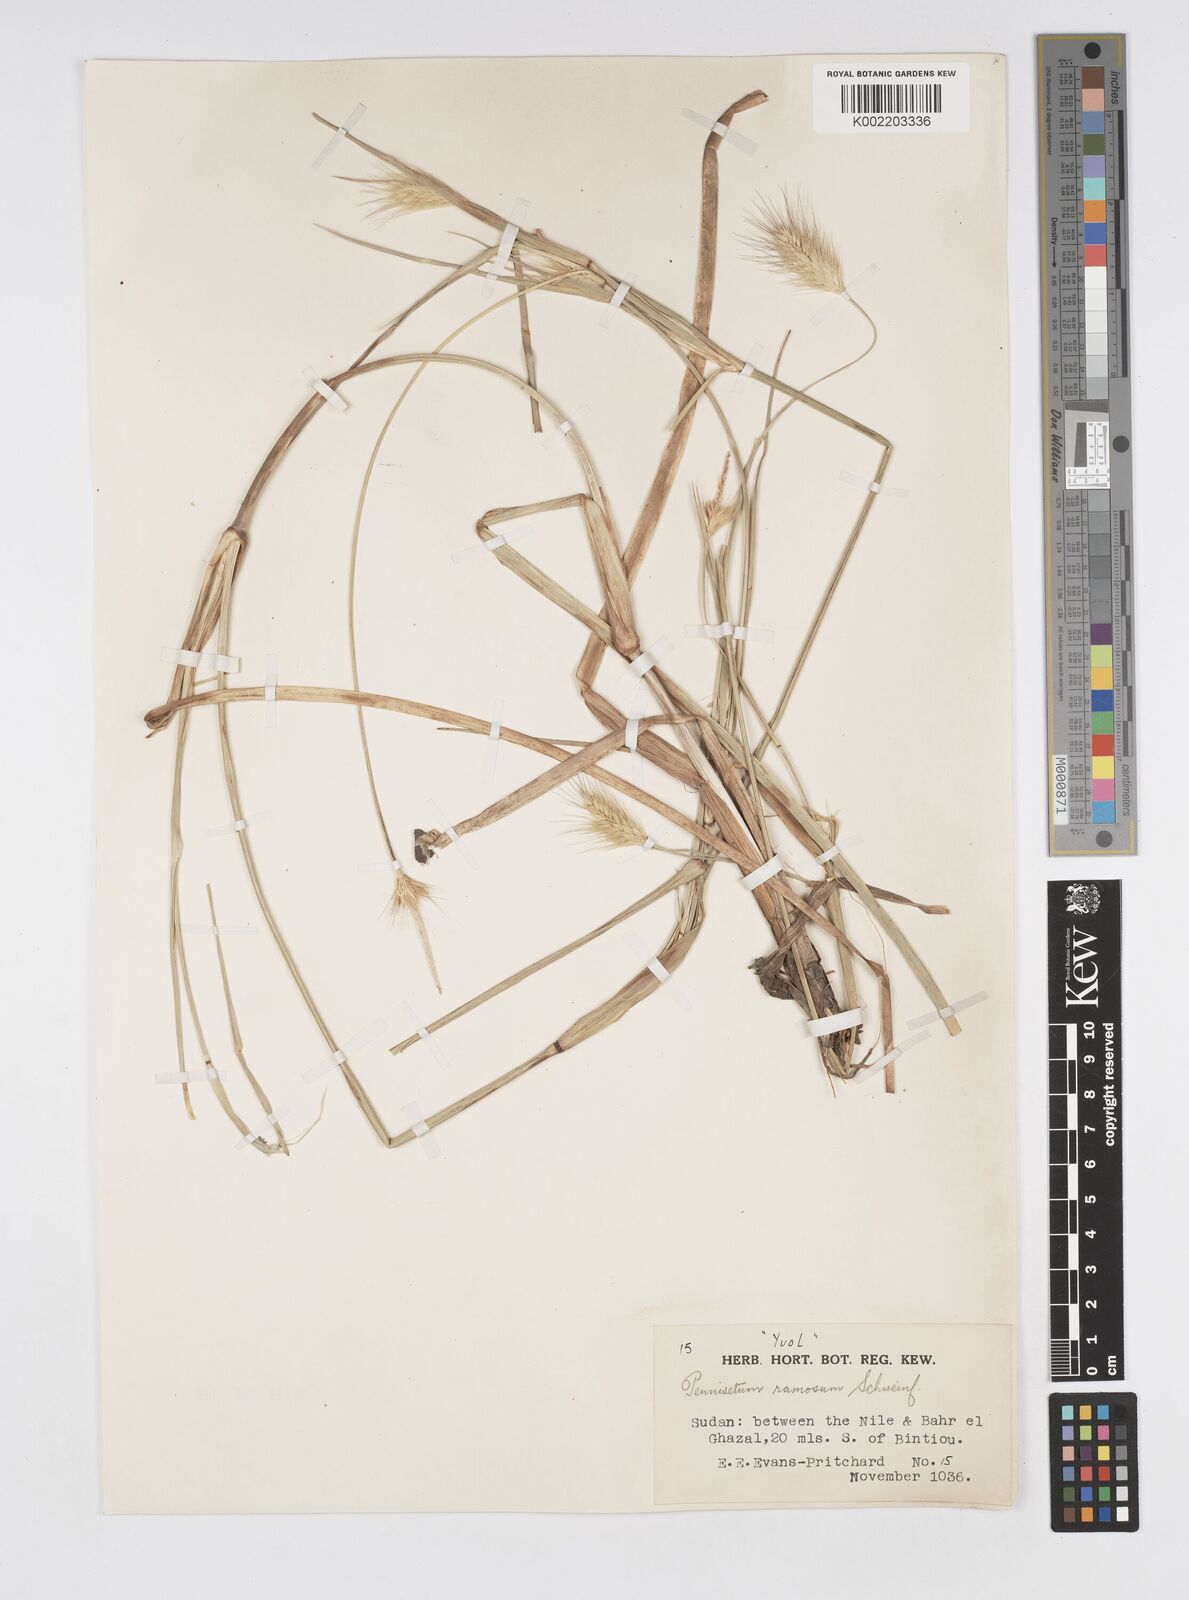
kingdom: Plantae
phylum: Tracheophyta
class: Liliopsida
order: Poales
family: Poaceae
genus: Cenchrus
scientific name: Cenchrus ramosus
